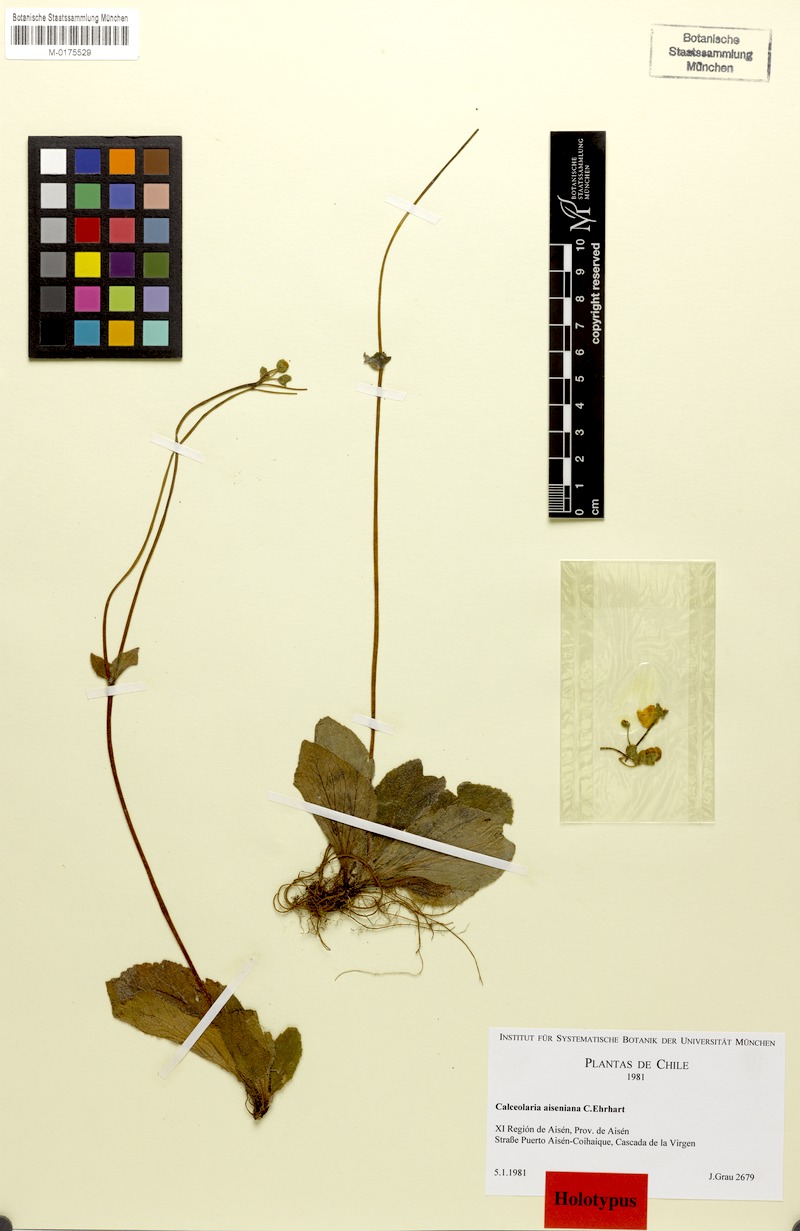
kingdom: Plantae
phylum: Tracheophyta
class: Magnoliopsida
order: Lamiales
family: Calceolariaceae
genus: Calceolaria
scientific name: Calceolaria aiseniana
